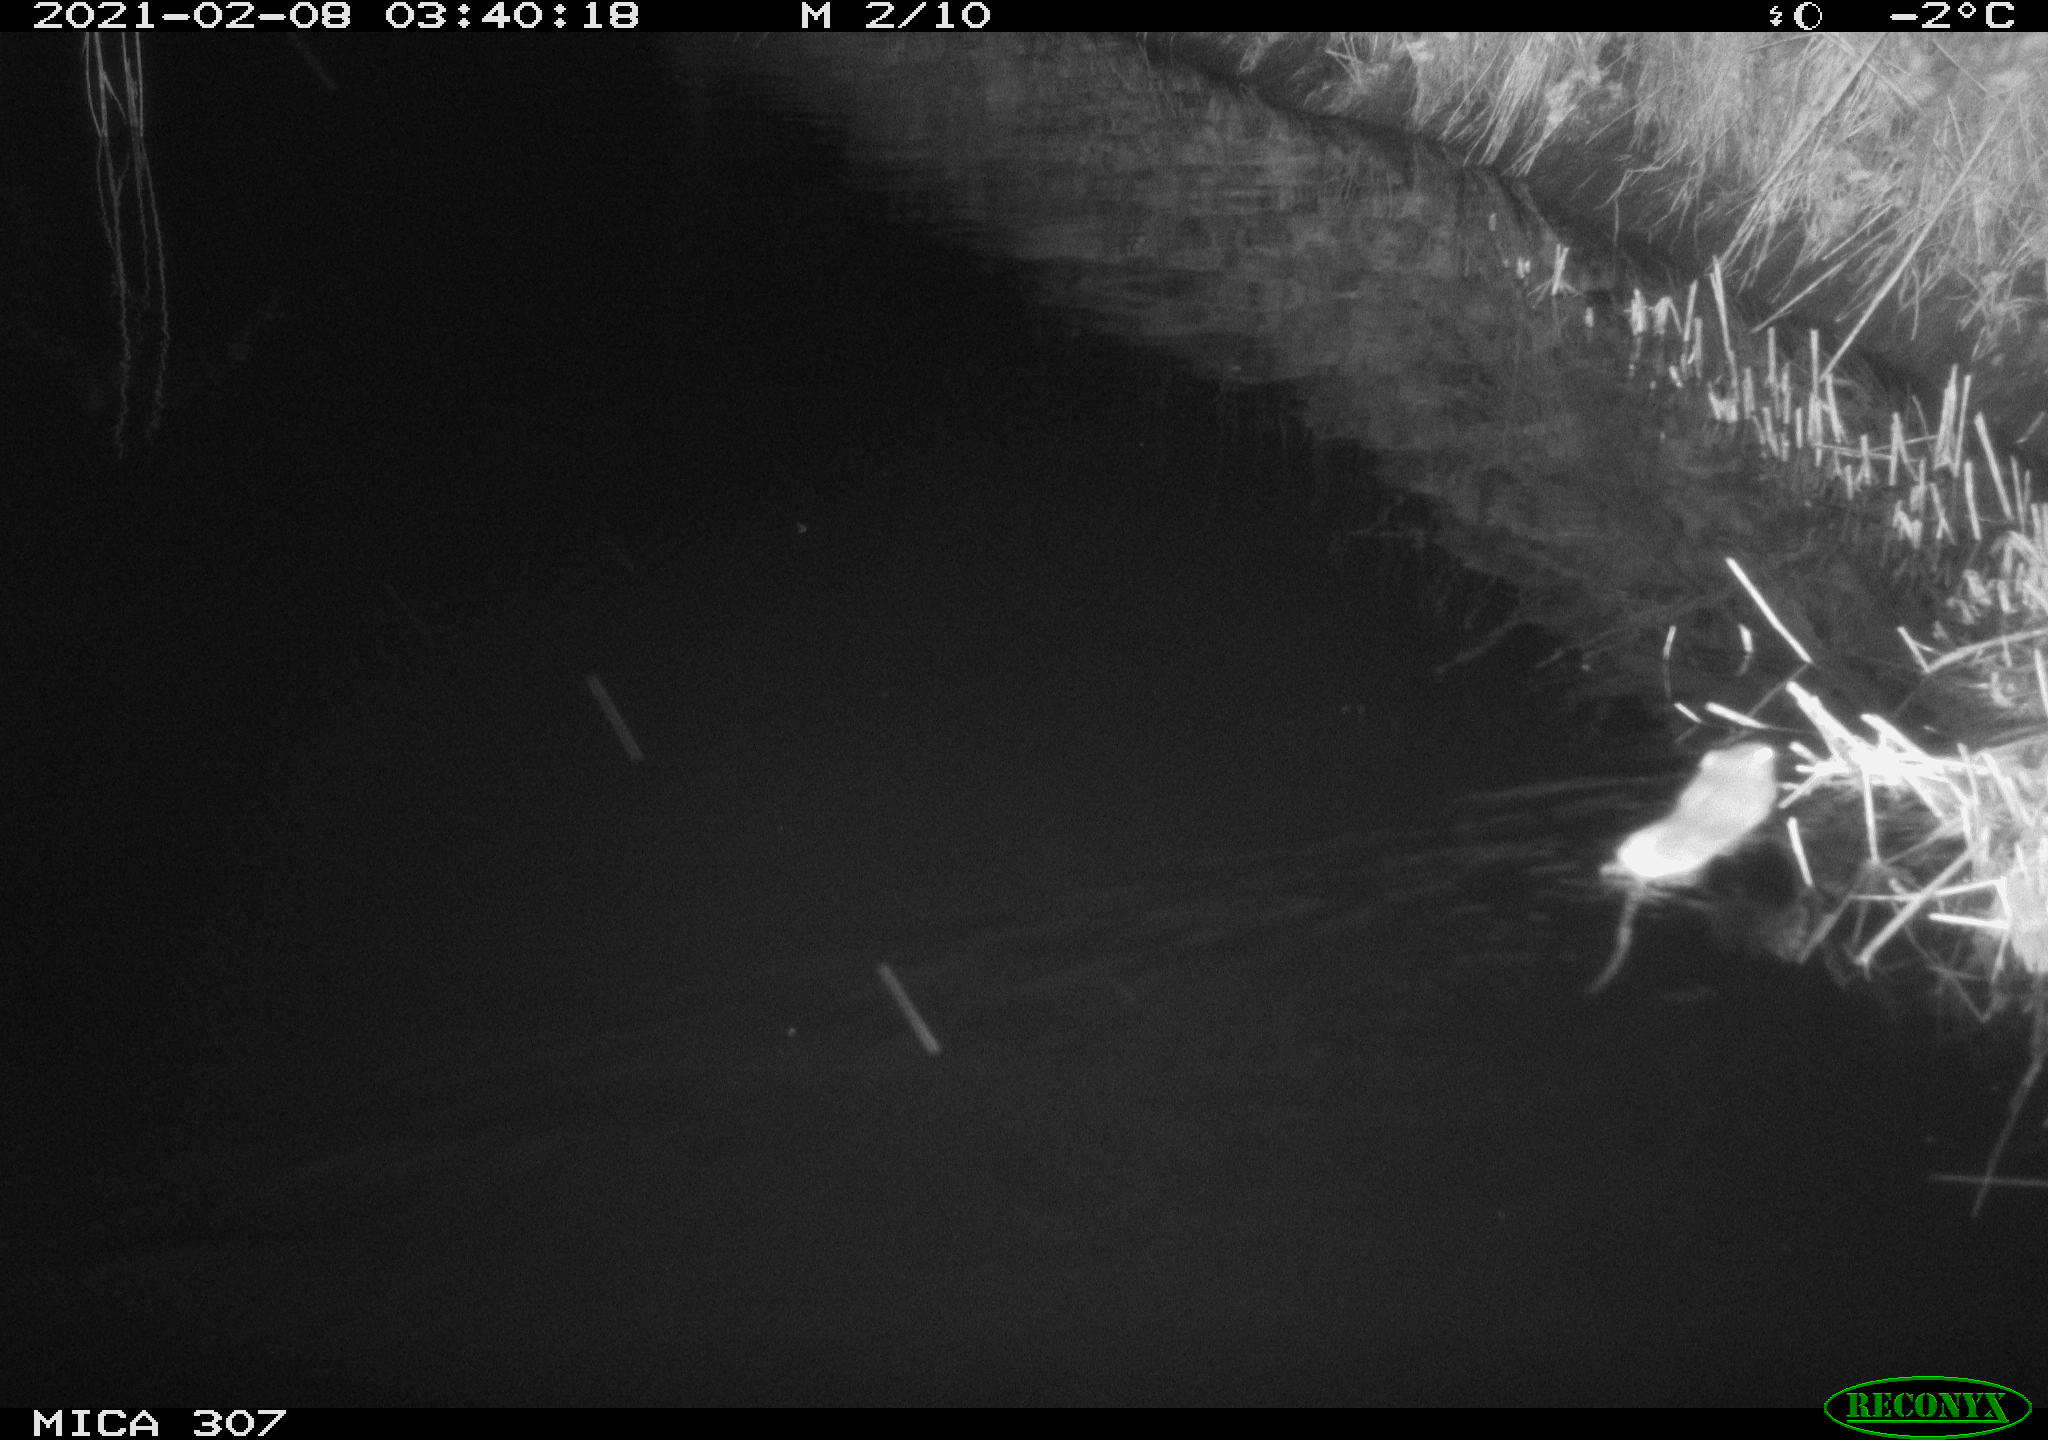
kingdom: Animalia
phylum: Chordata
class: Mammalia
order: Rodentia
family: Muridae
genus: Rattus
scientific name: Rattus norvegicus
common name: Brown rat
